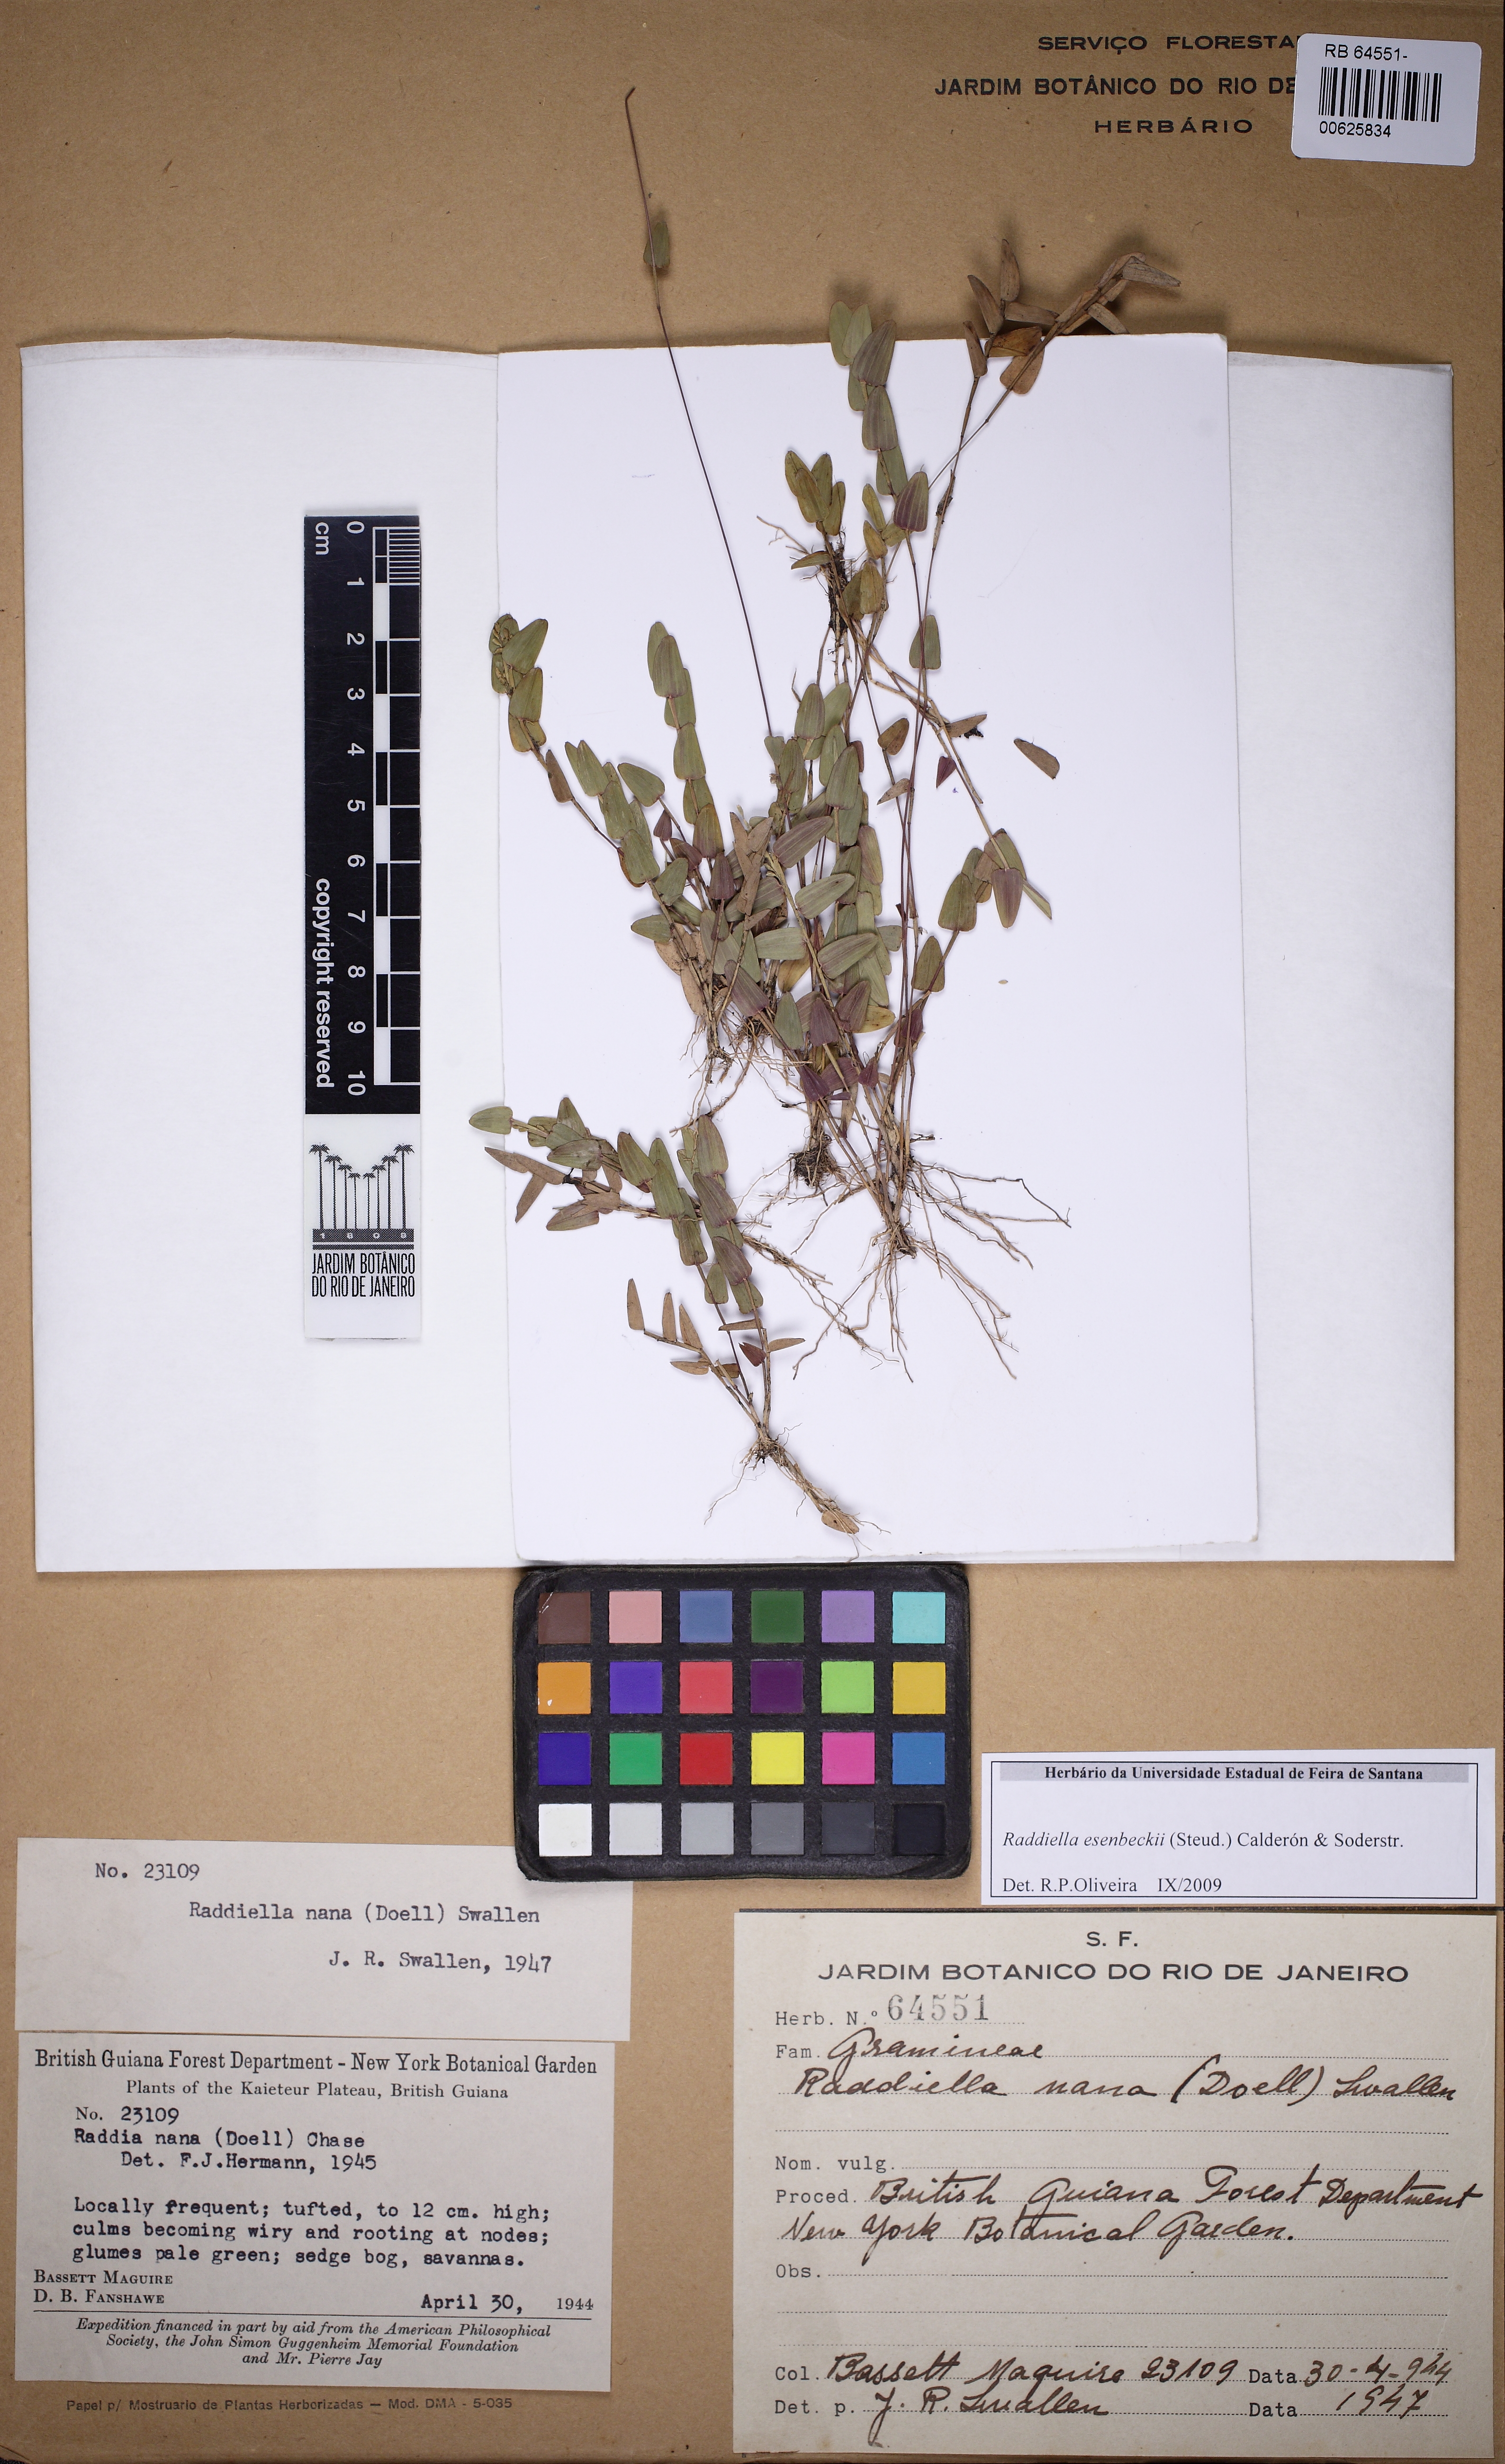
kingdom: Plantae
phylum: Tracheophyta
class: Liliopsida
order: Poales
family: Poaceae
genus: Raddiella
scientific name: Raddiella esenbeckii
